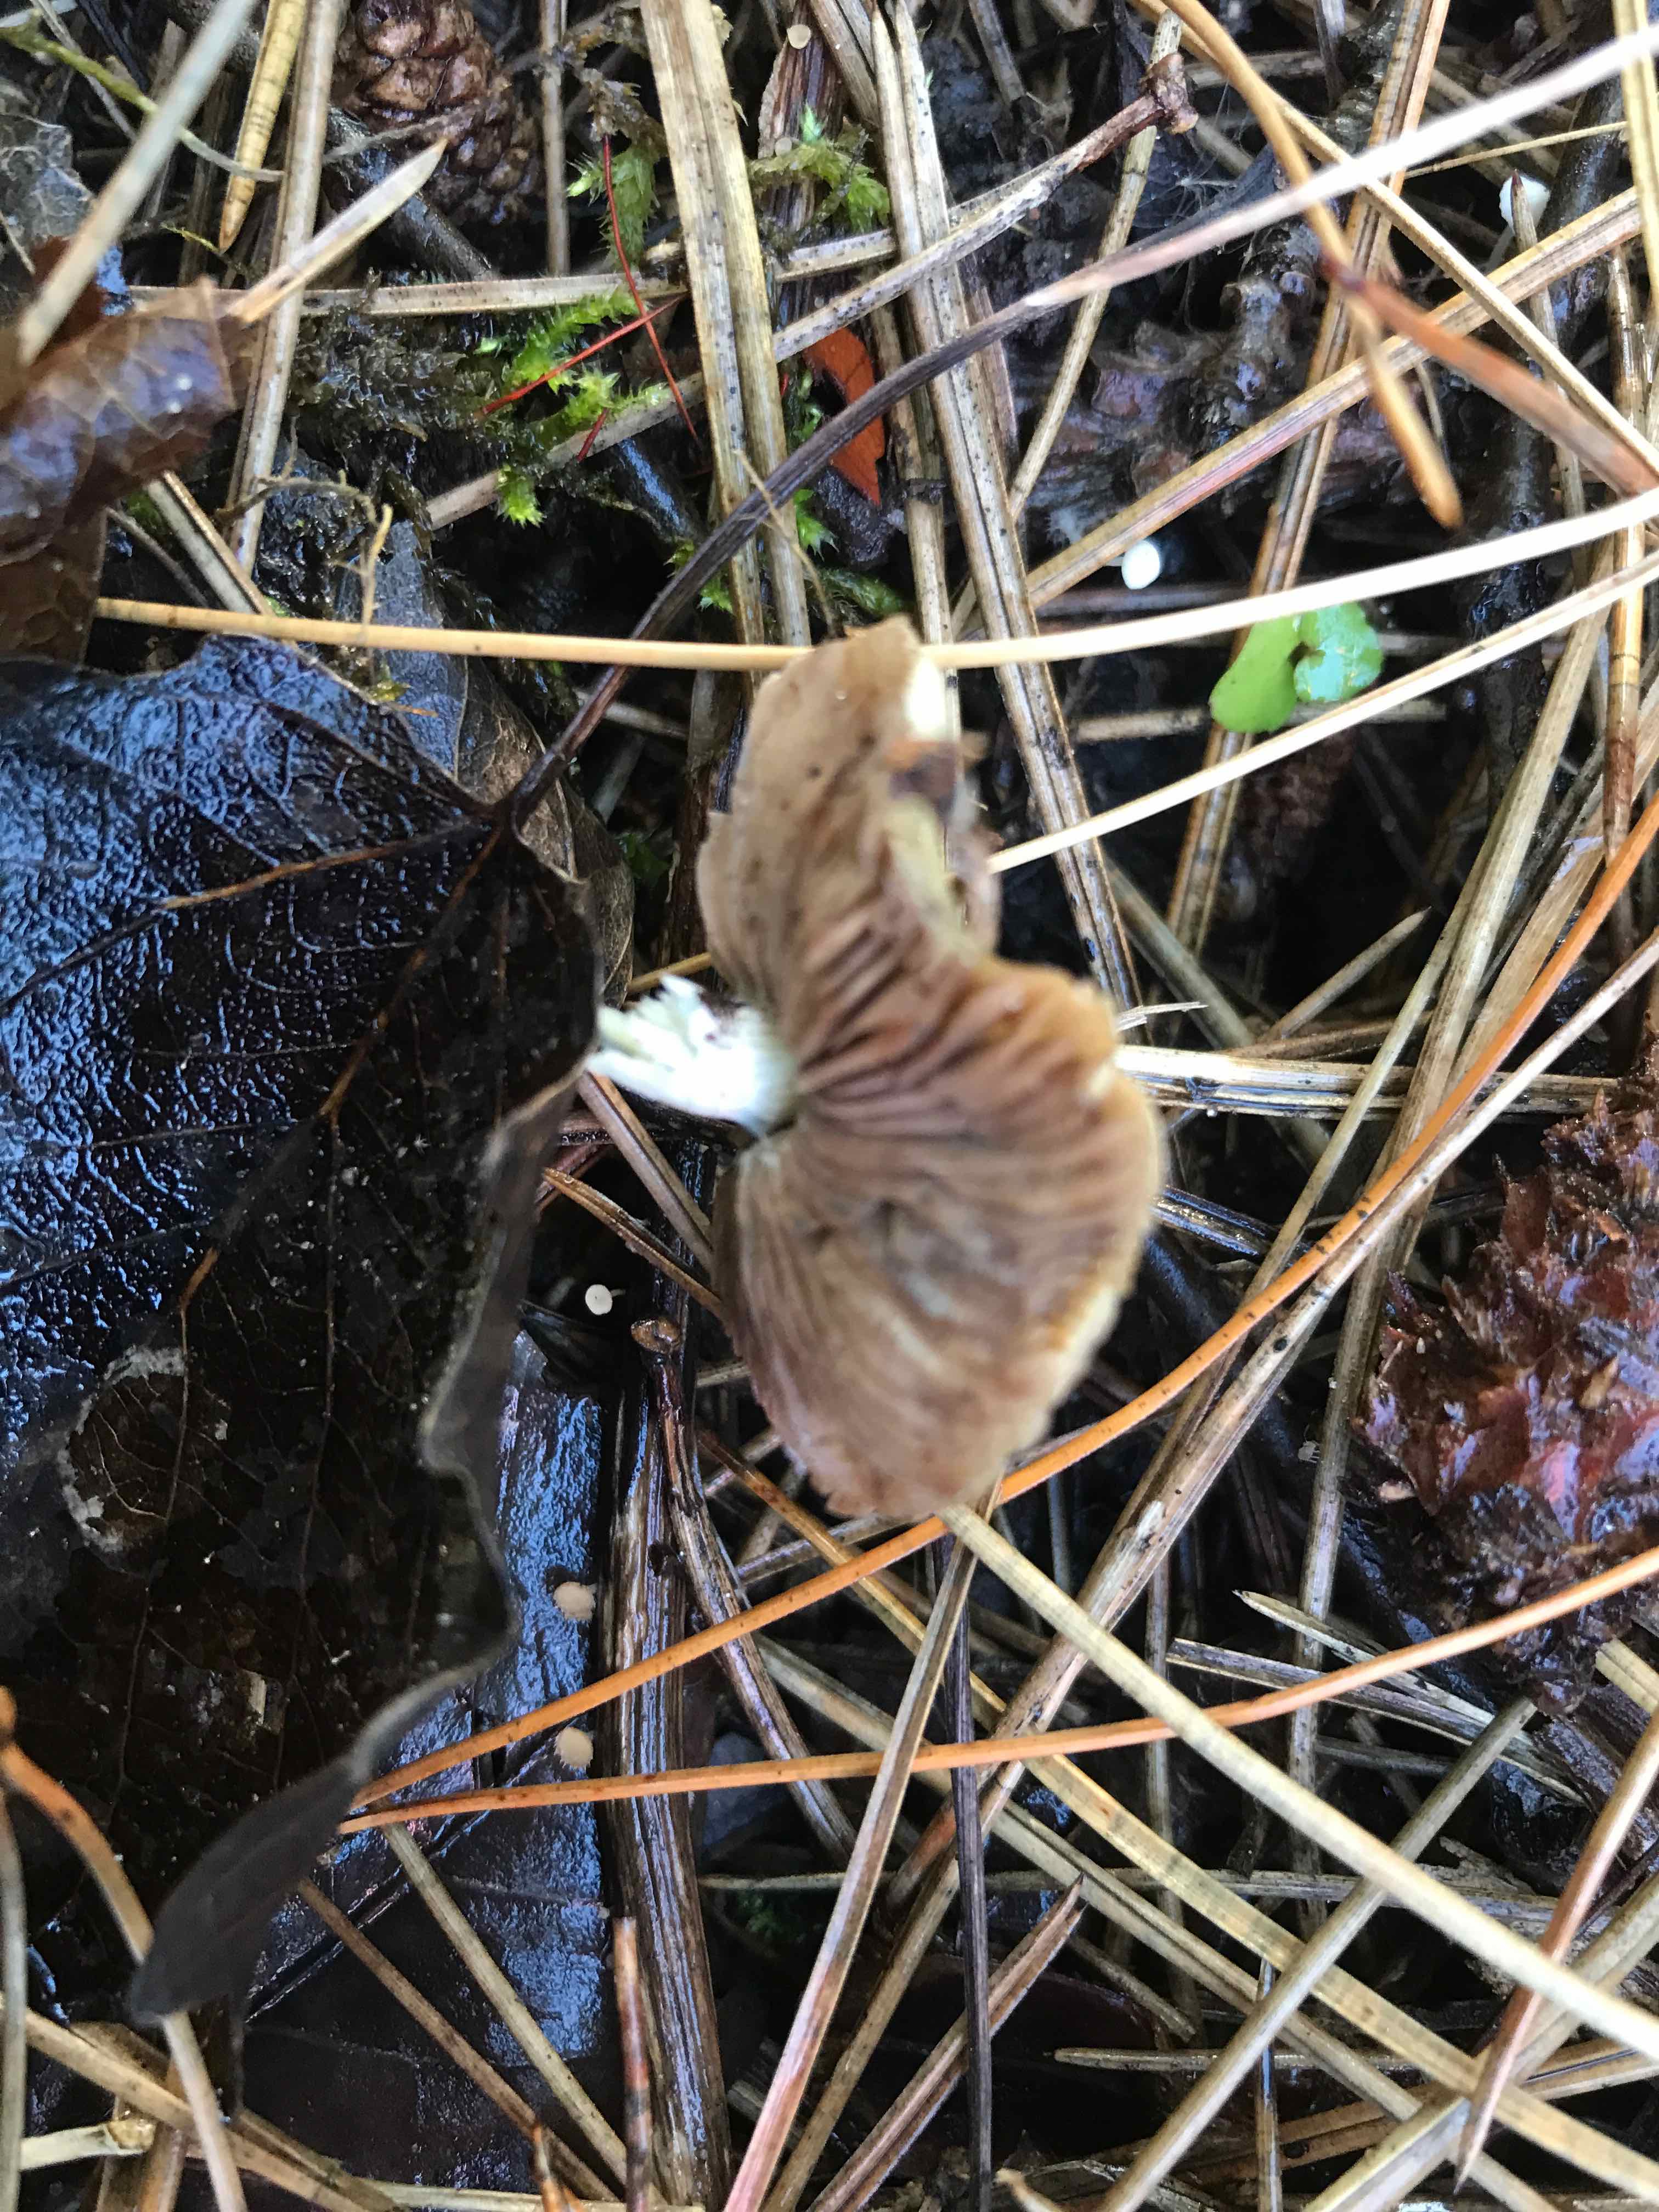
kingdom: Fungi
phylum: Basidiomycota
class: Agaricomycetes
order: Agaricales
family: Strophariaceae
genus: Stropharia
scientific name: Stropharia cyanea
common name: blågrøn bredblad
